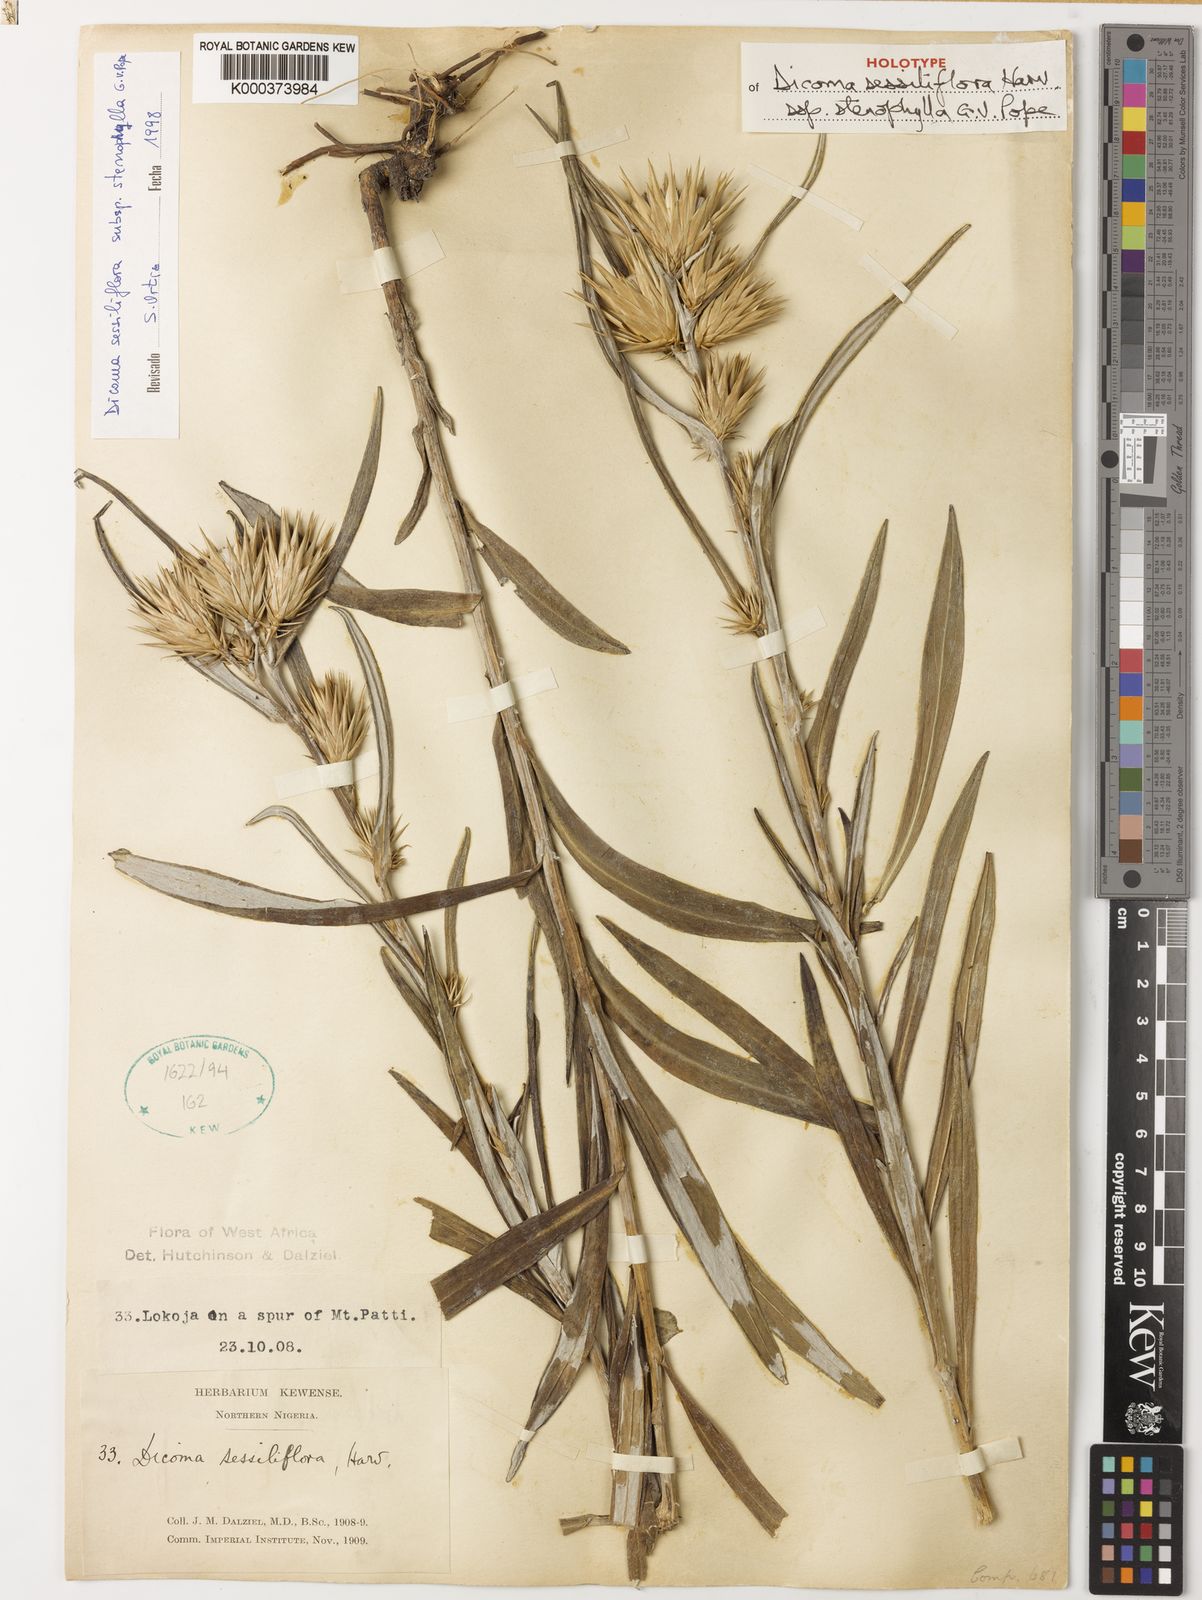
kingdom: Plantae
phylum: Tracheophyta
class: Magnoliopsida
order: Asterales
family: Asteraceae
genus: Macledium
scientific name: Macledium sessiliflorum
